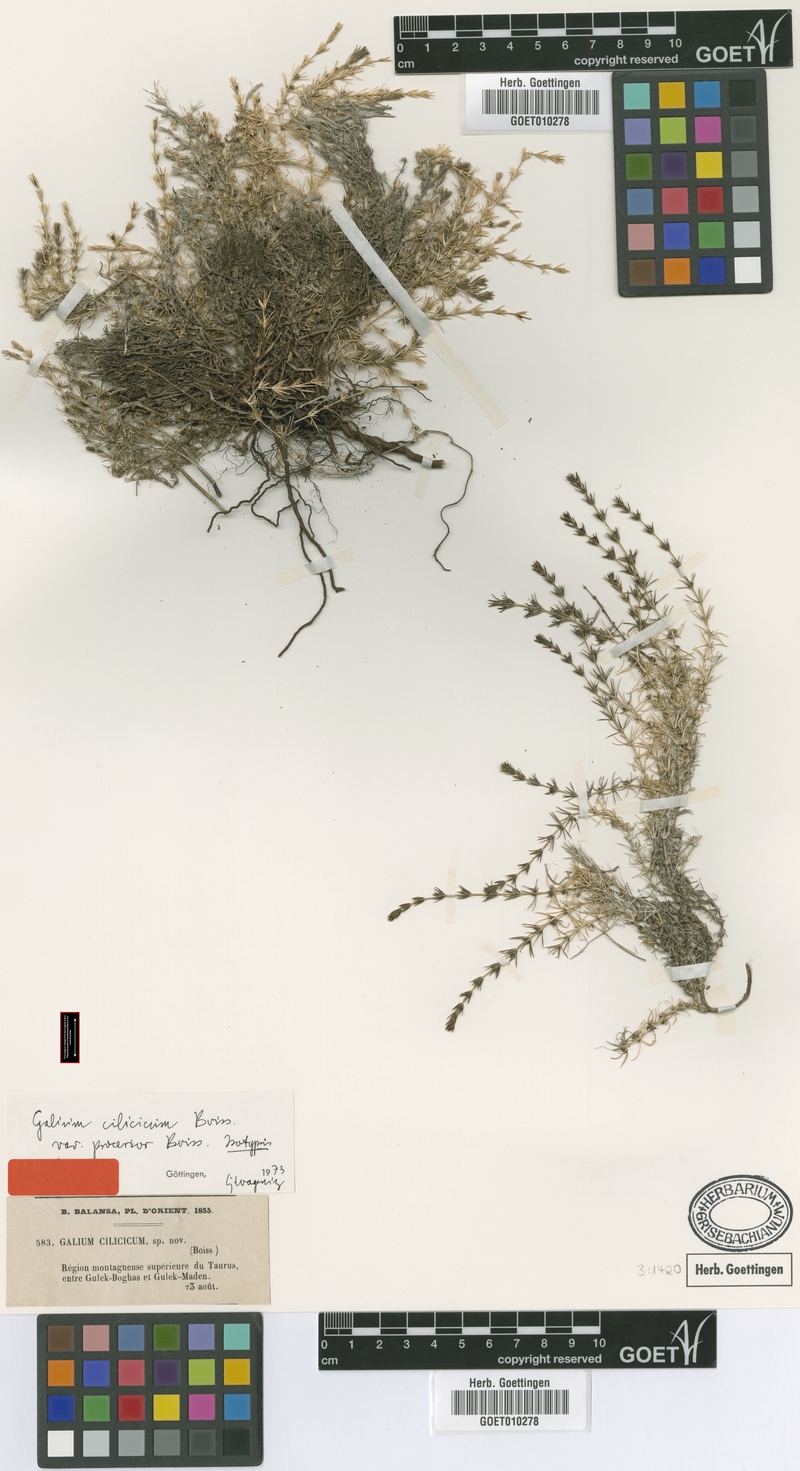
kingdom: Plantae
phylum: Tracheophyta
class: Magnoliopsida
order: Gentianales
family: Rubiaceae
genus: Galium
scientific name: Galium cilicicum
